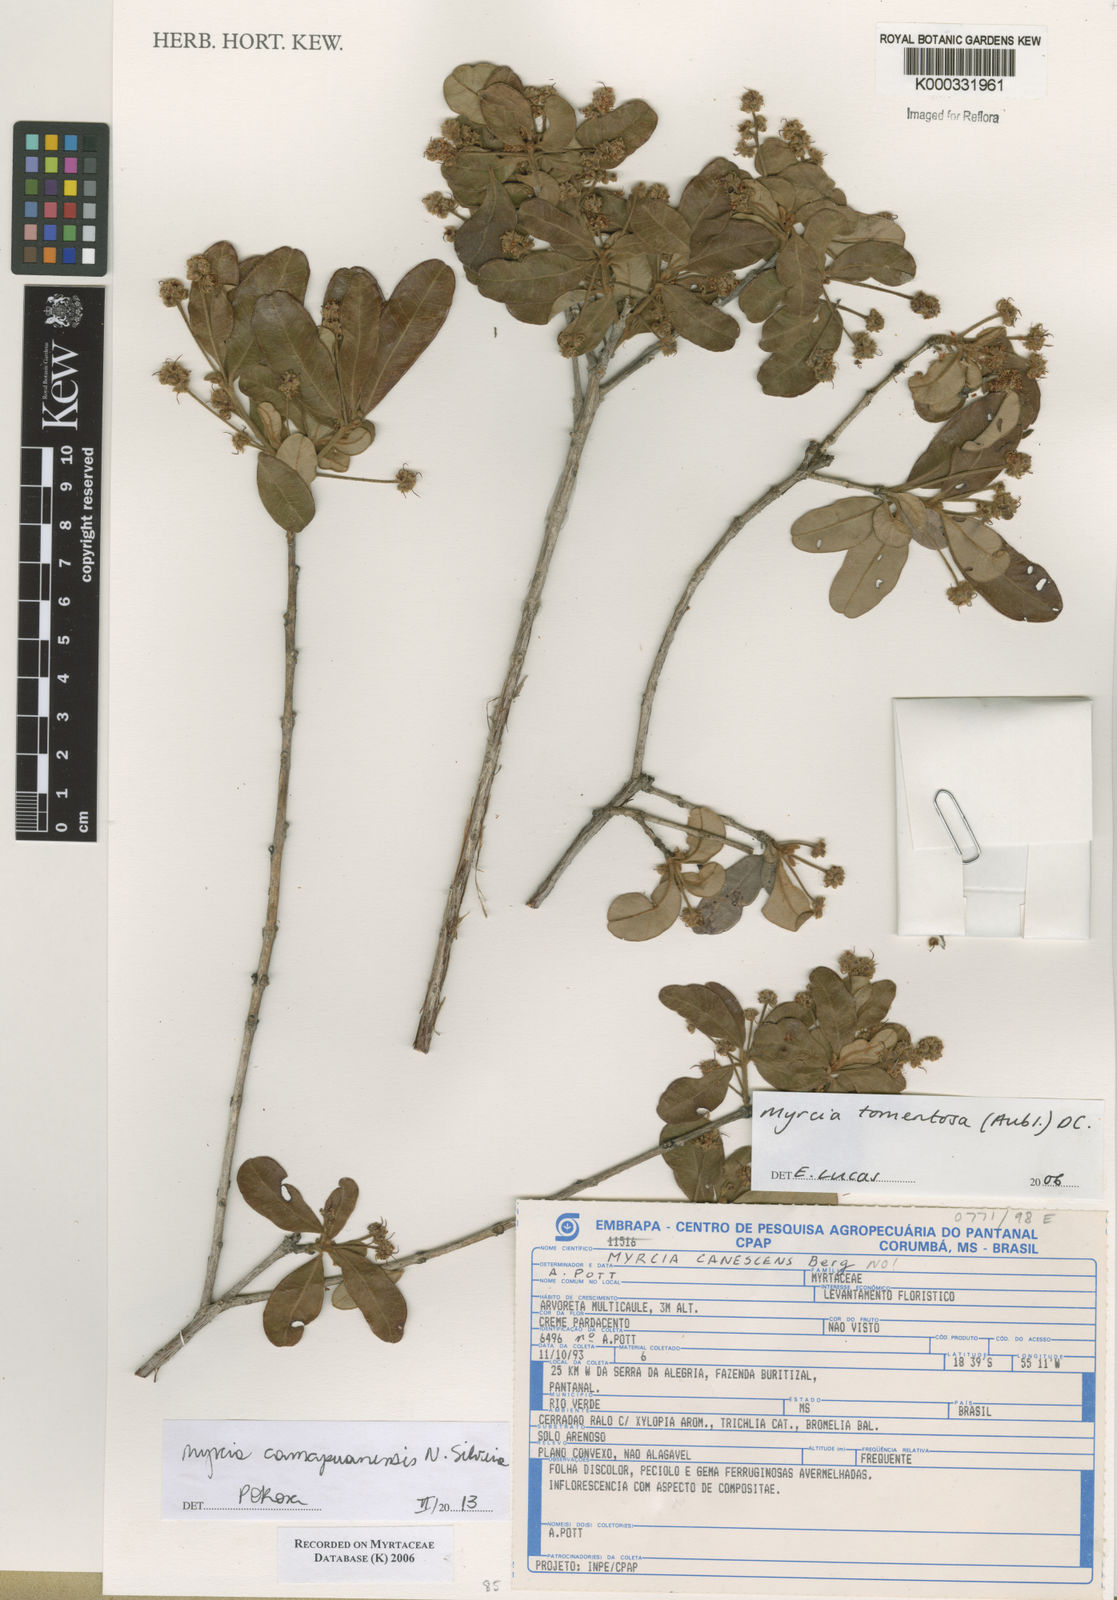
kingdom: Plantae
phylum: Tracheophyta
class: Magnoliopsida
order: Myrtales
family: Myrtaceae
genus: Myrcia
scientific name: Myrcia tomentosa
